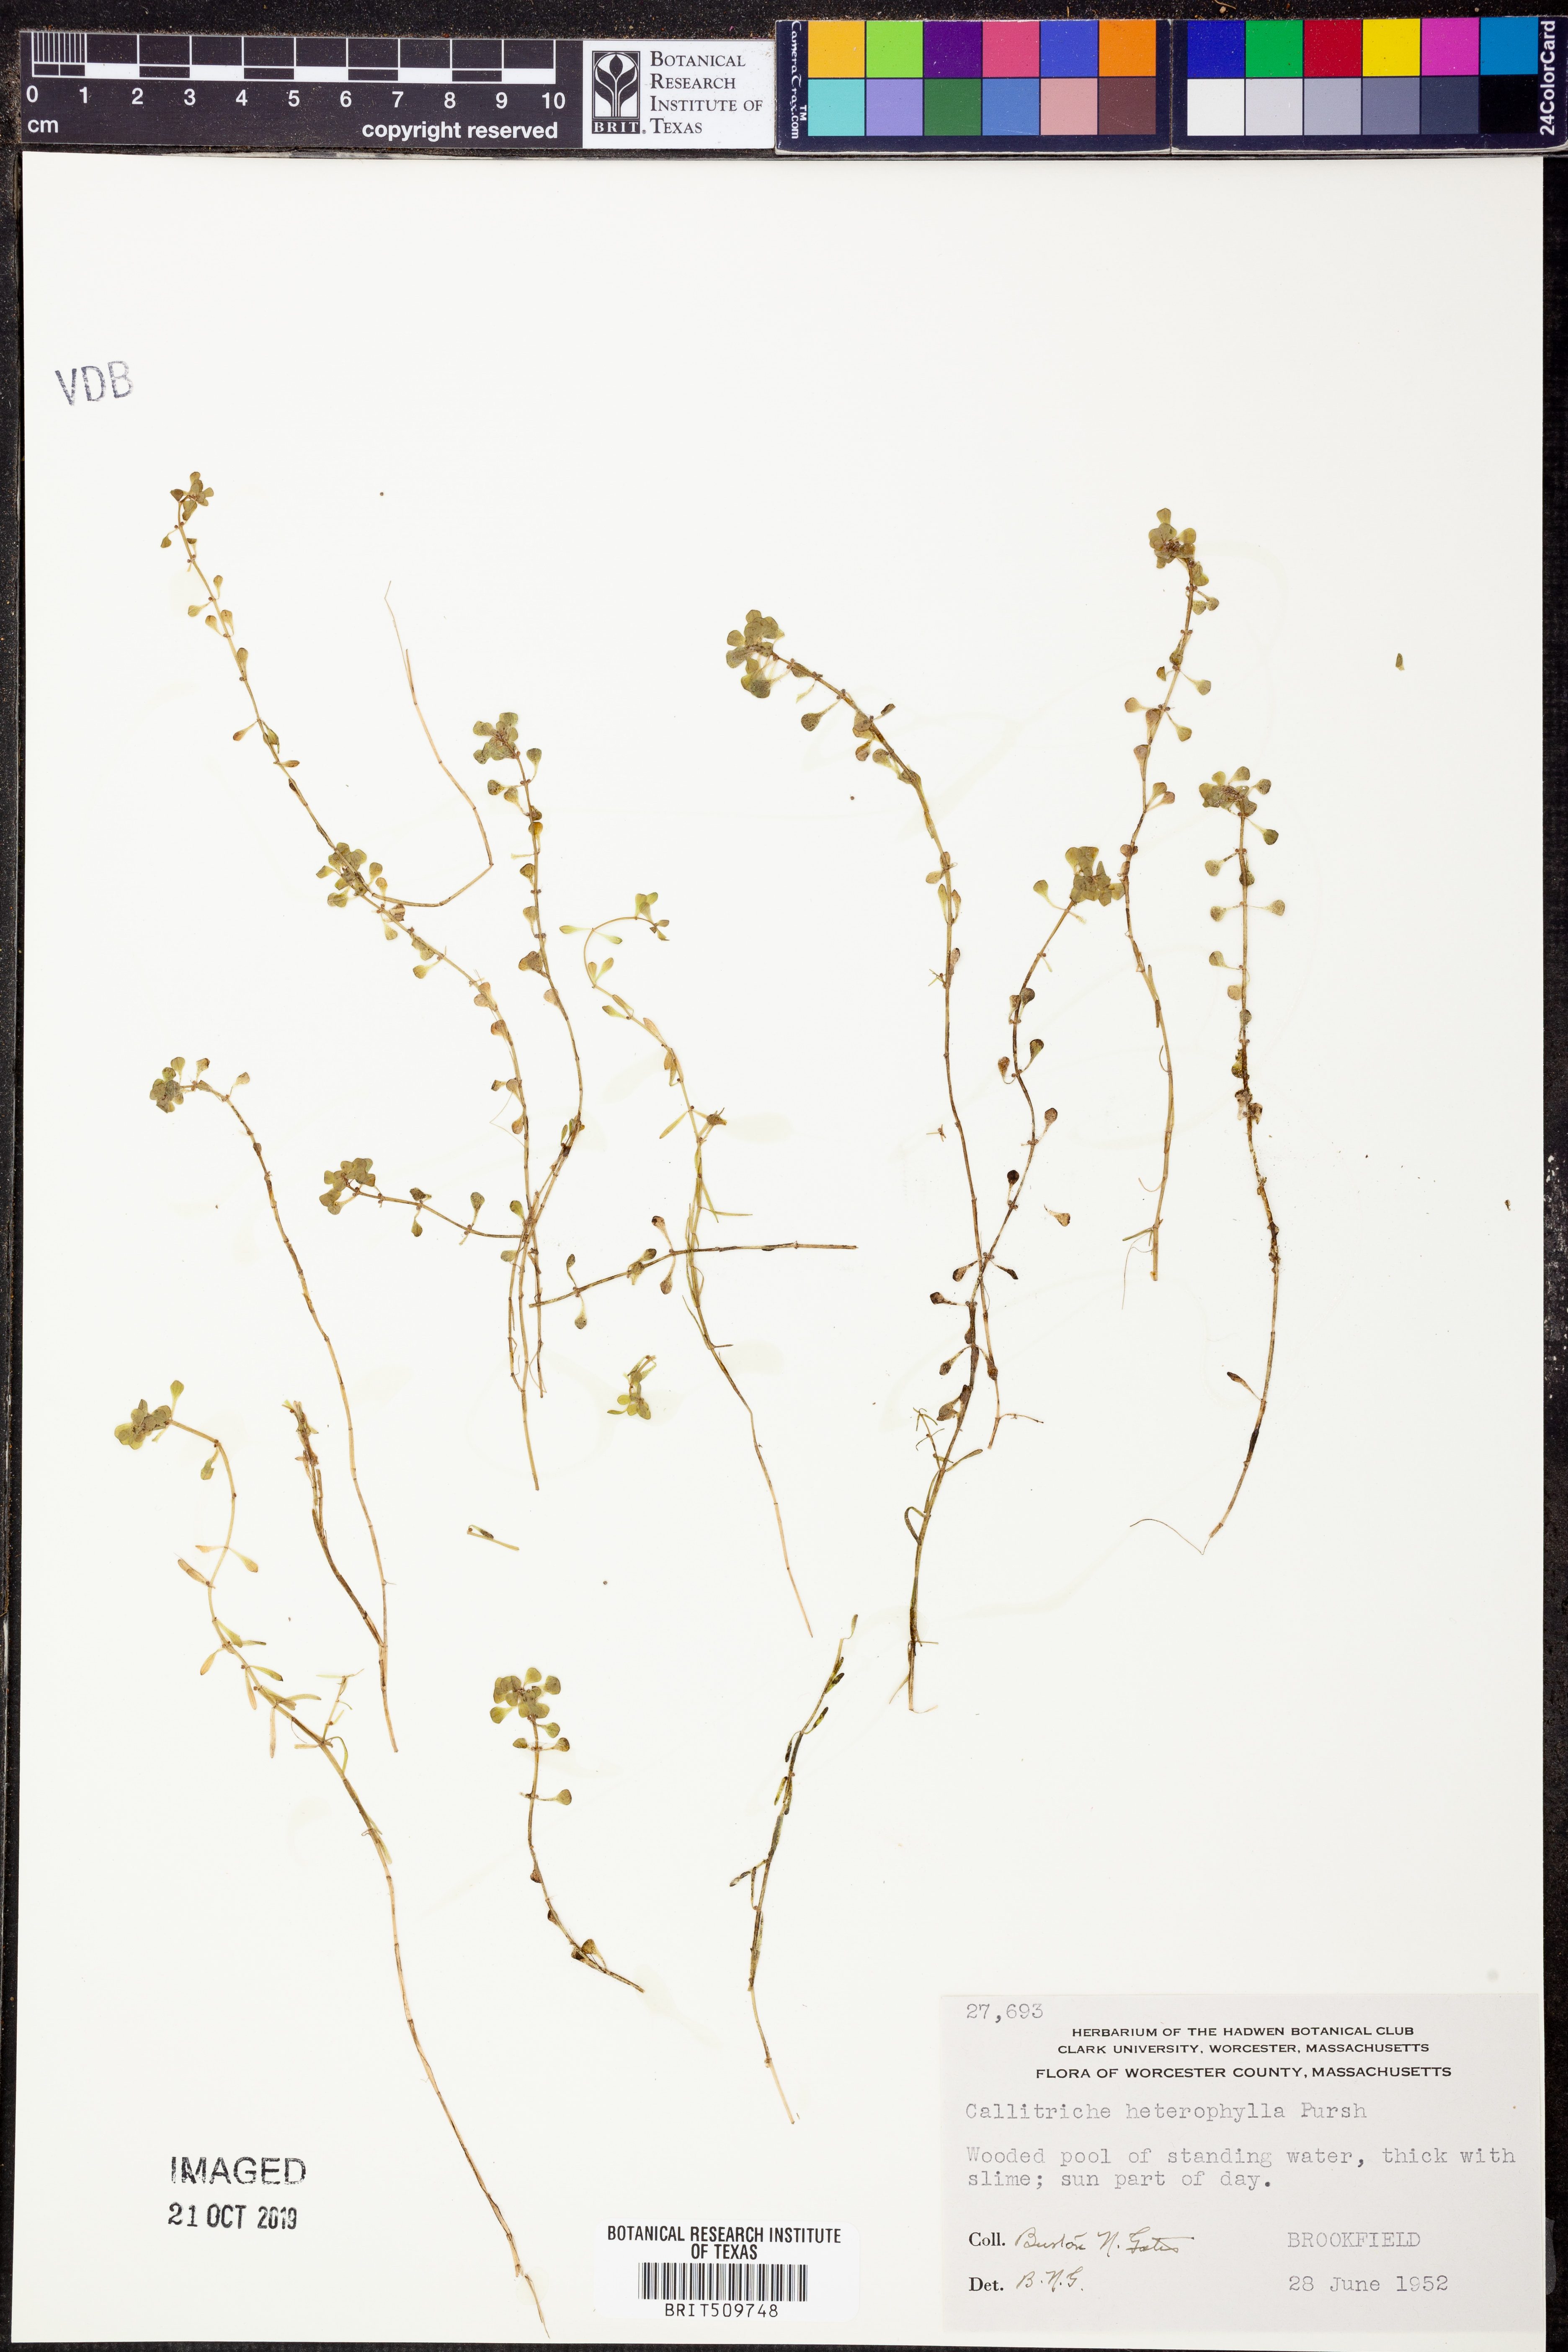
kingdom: Plantae
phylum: Tracheophyta
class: Magnoliopsida
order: Lamiales
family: Plantaginaceae
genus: Callitriche
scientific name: Callitriche heterophylla
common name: Two-headed water-starwort
